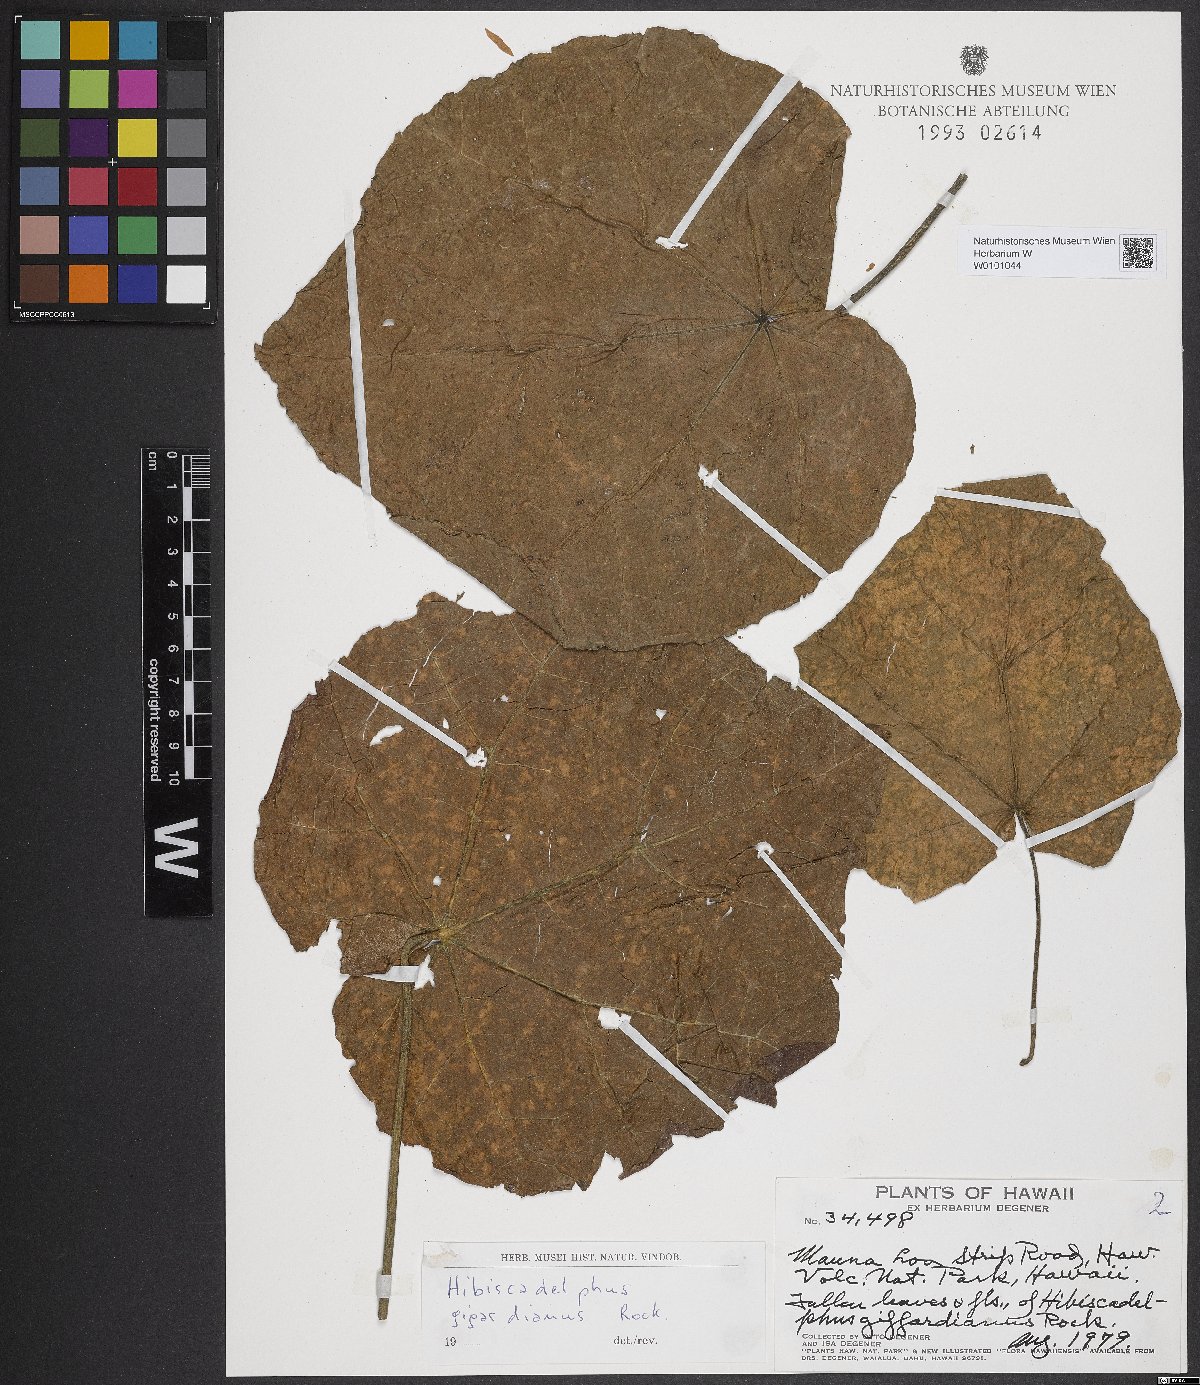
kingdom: Plantae
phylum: Tracheophyta
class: Magnoliopsida
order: Malvales
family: Malvaceae
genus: Hibiscadelphus
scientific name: Hibiscadelphus giffardianus
